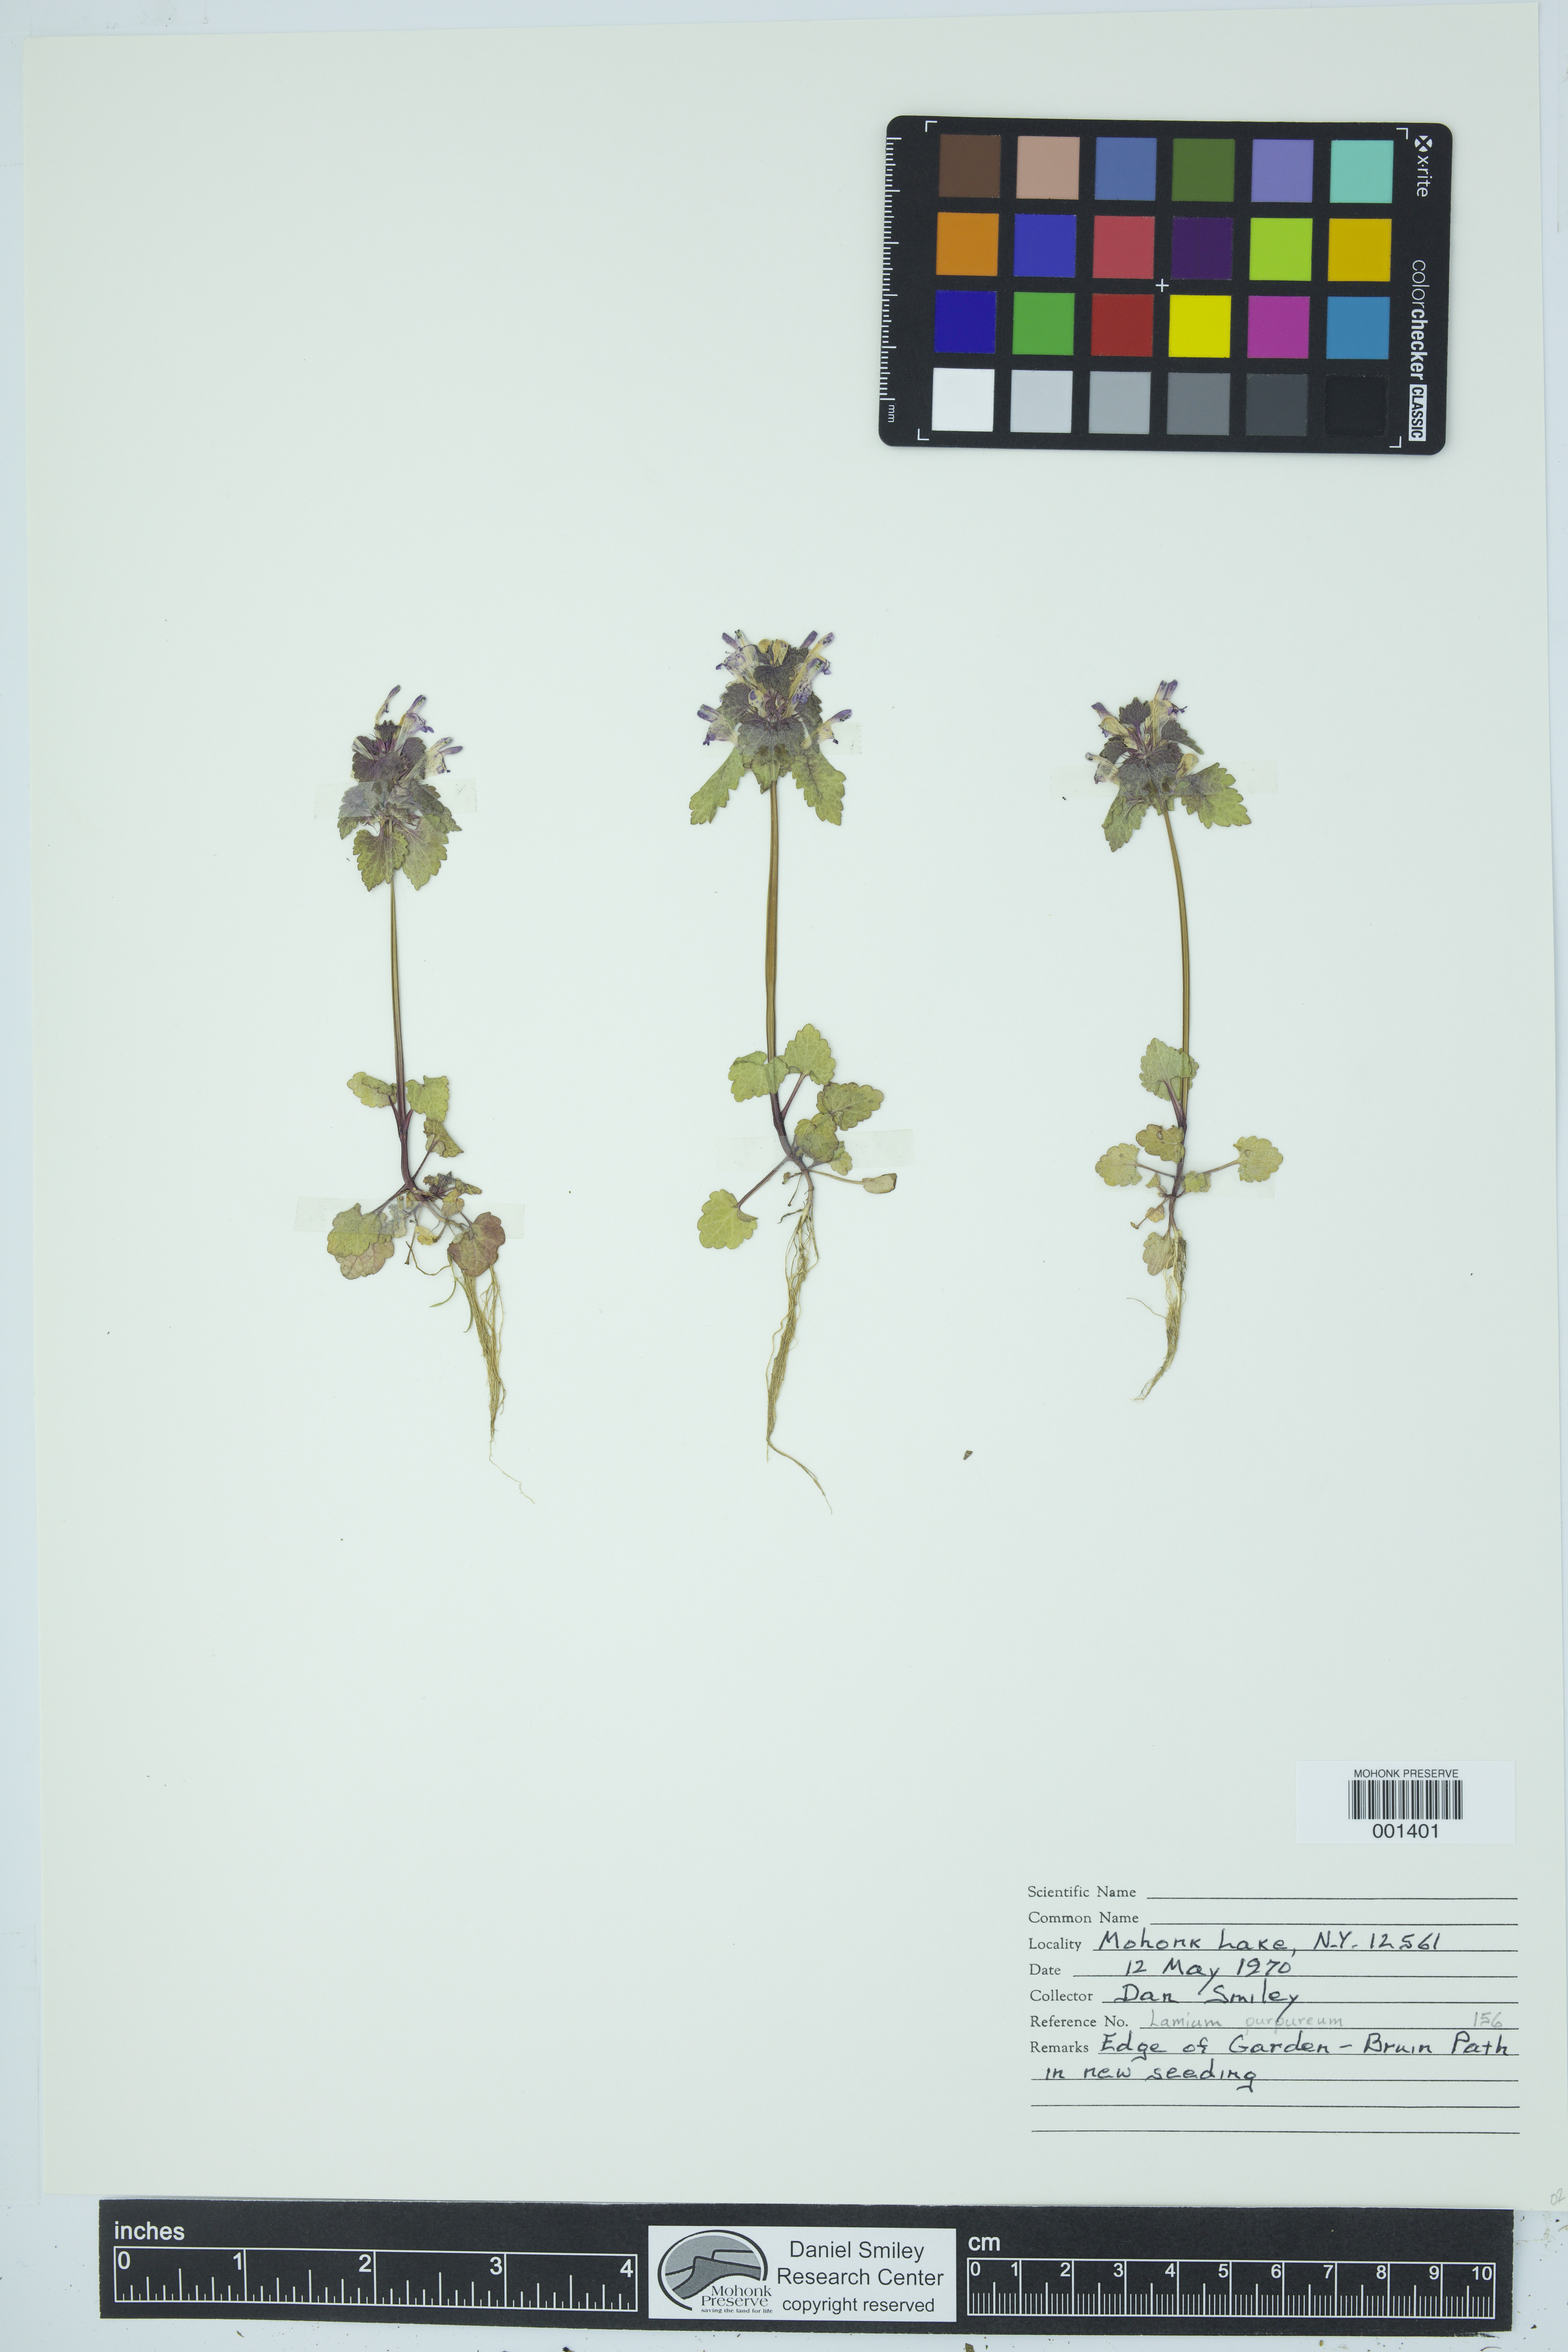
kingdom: Plantae
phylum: Tracheophyta
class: Magnoliopsida
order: Lamiales
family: Lamiaceae
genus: Lamium
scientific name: Lamium purpureum
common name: Red dead-nettle
